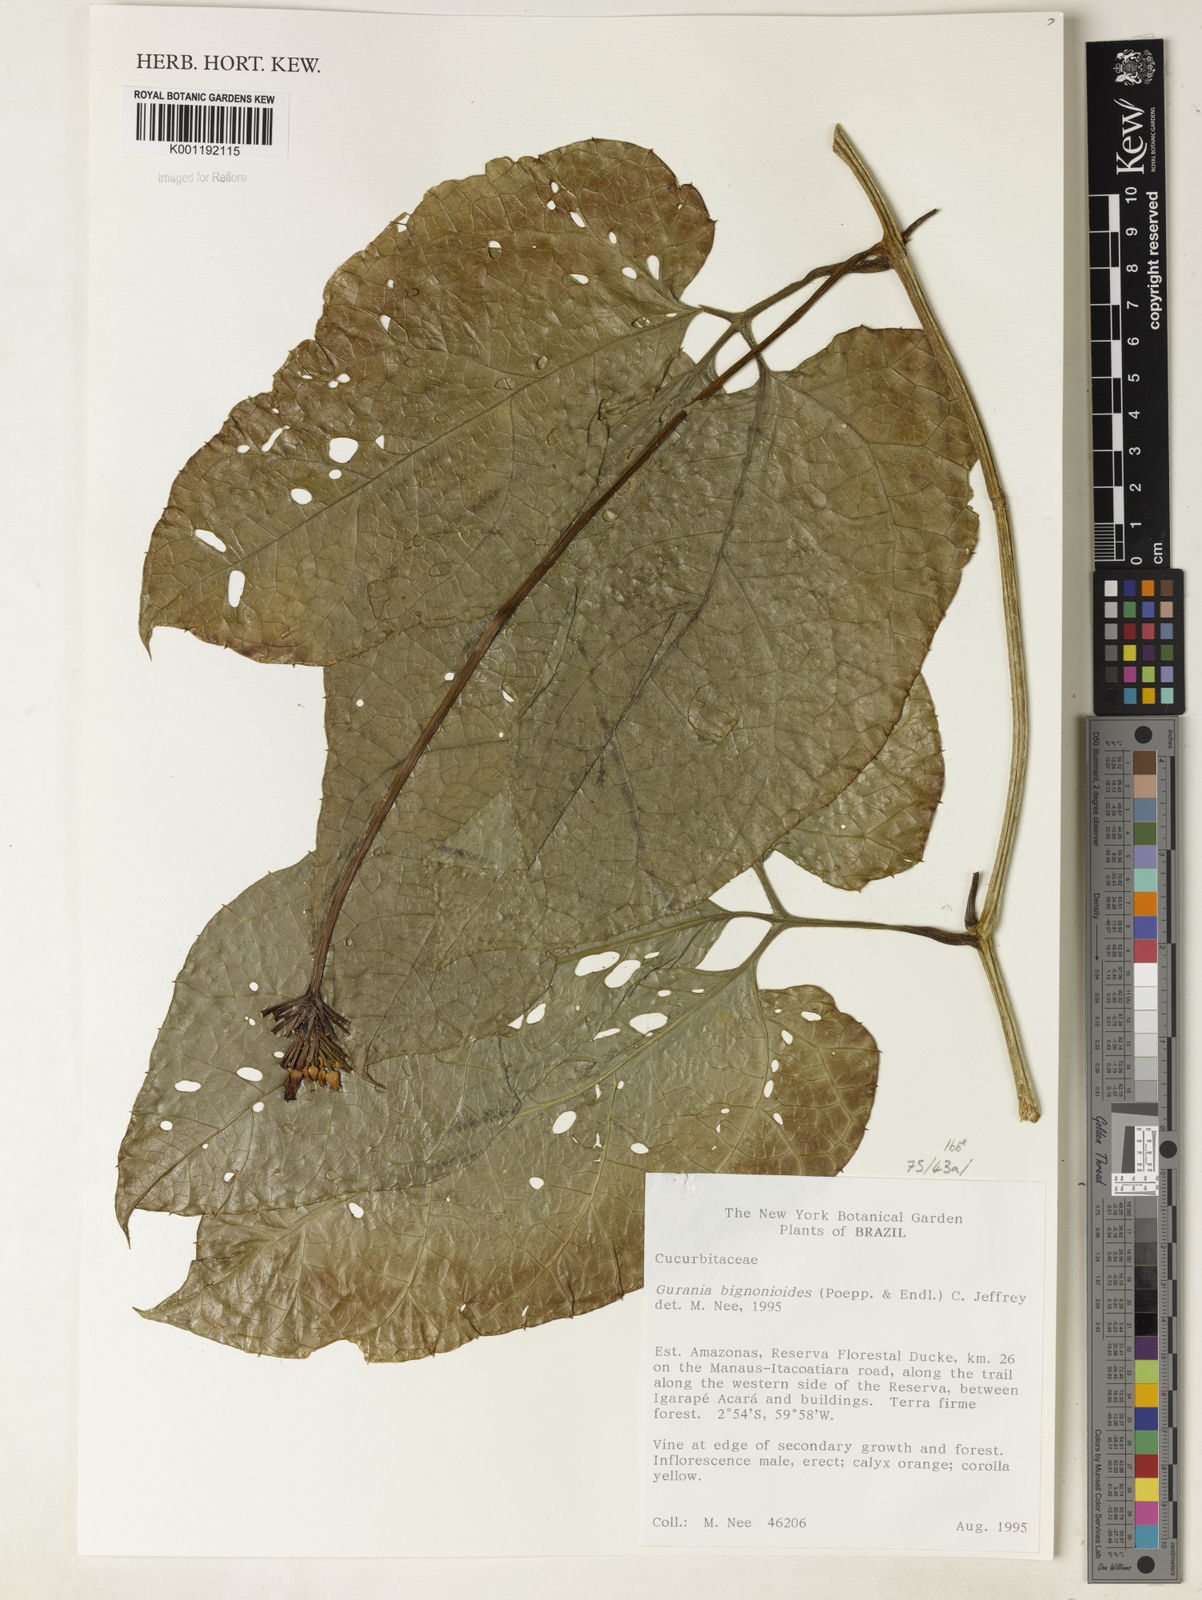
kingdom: Plantae
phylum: Tracheophyta
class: Magnoliopsida
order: Cucurbitales
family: Cucurbitaceae
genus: Gurania
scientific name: Gurania bignoniacea
